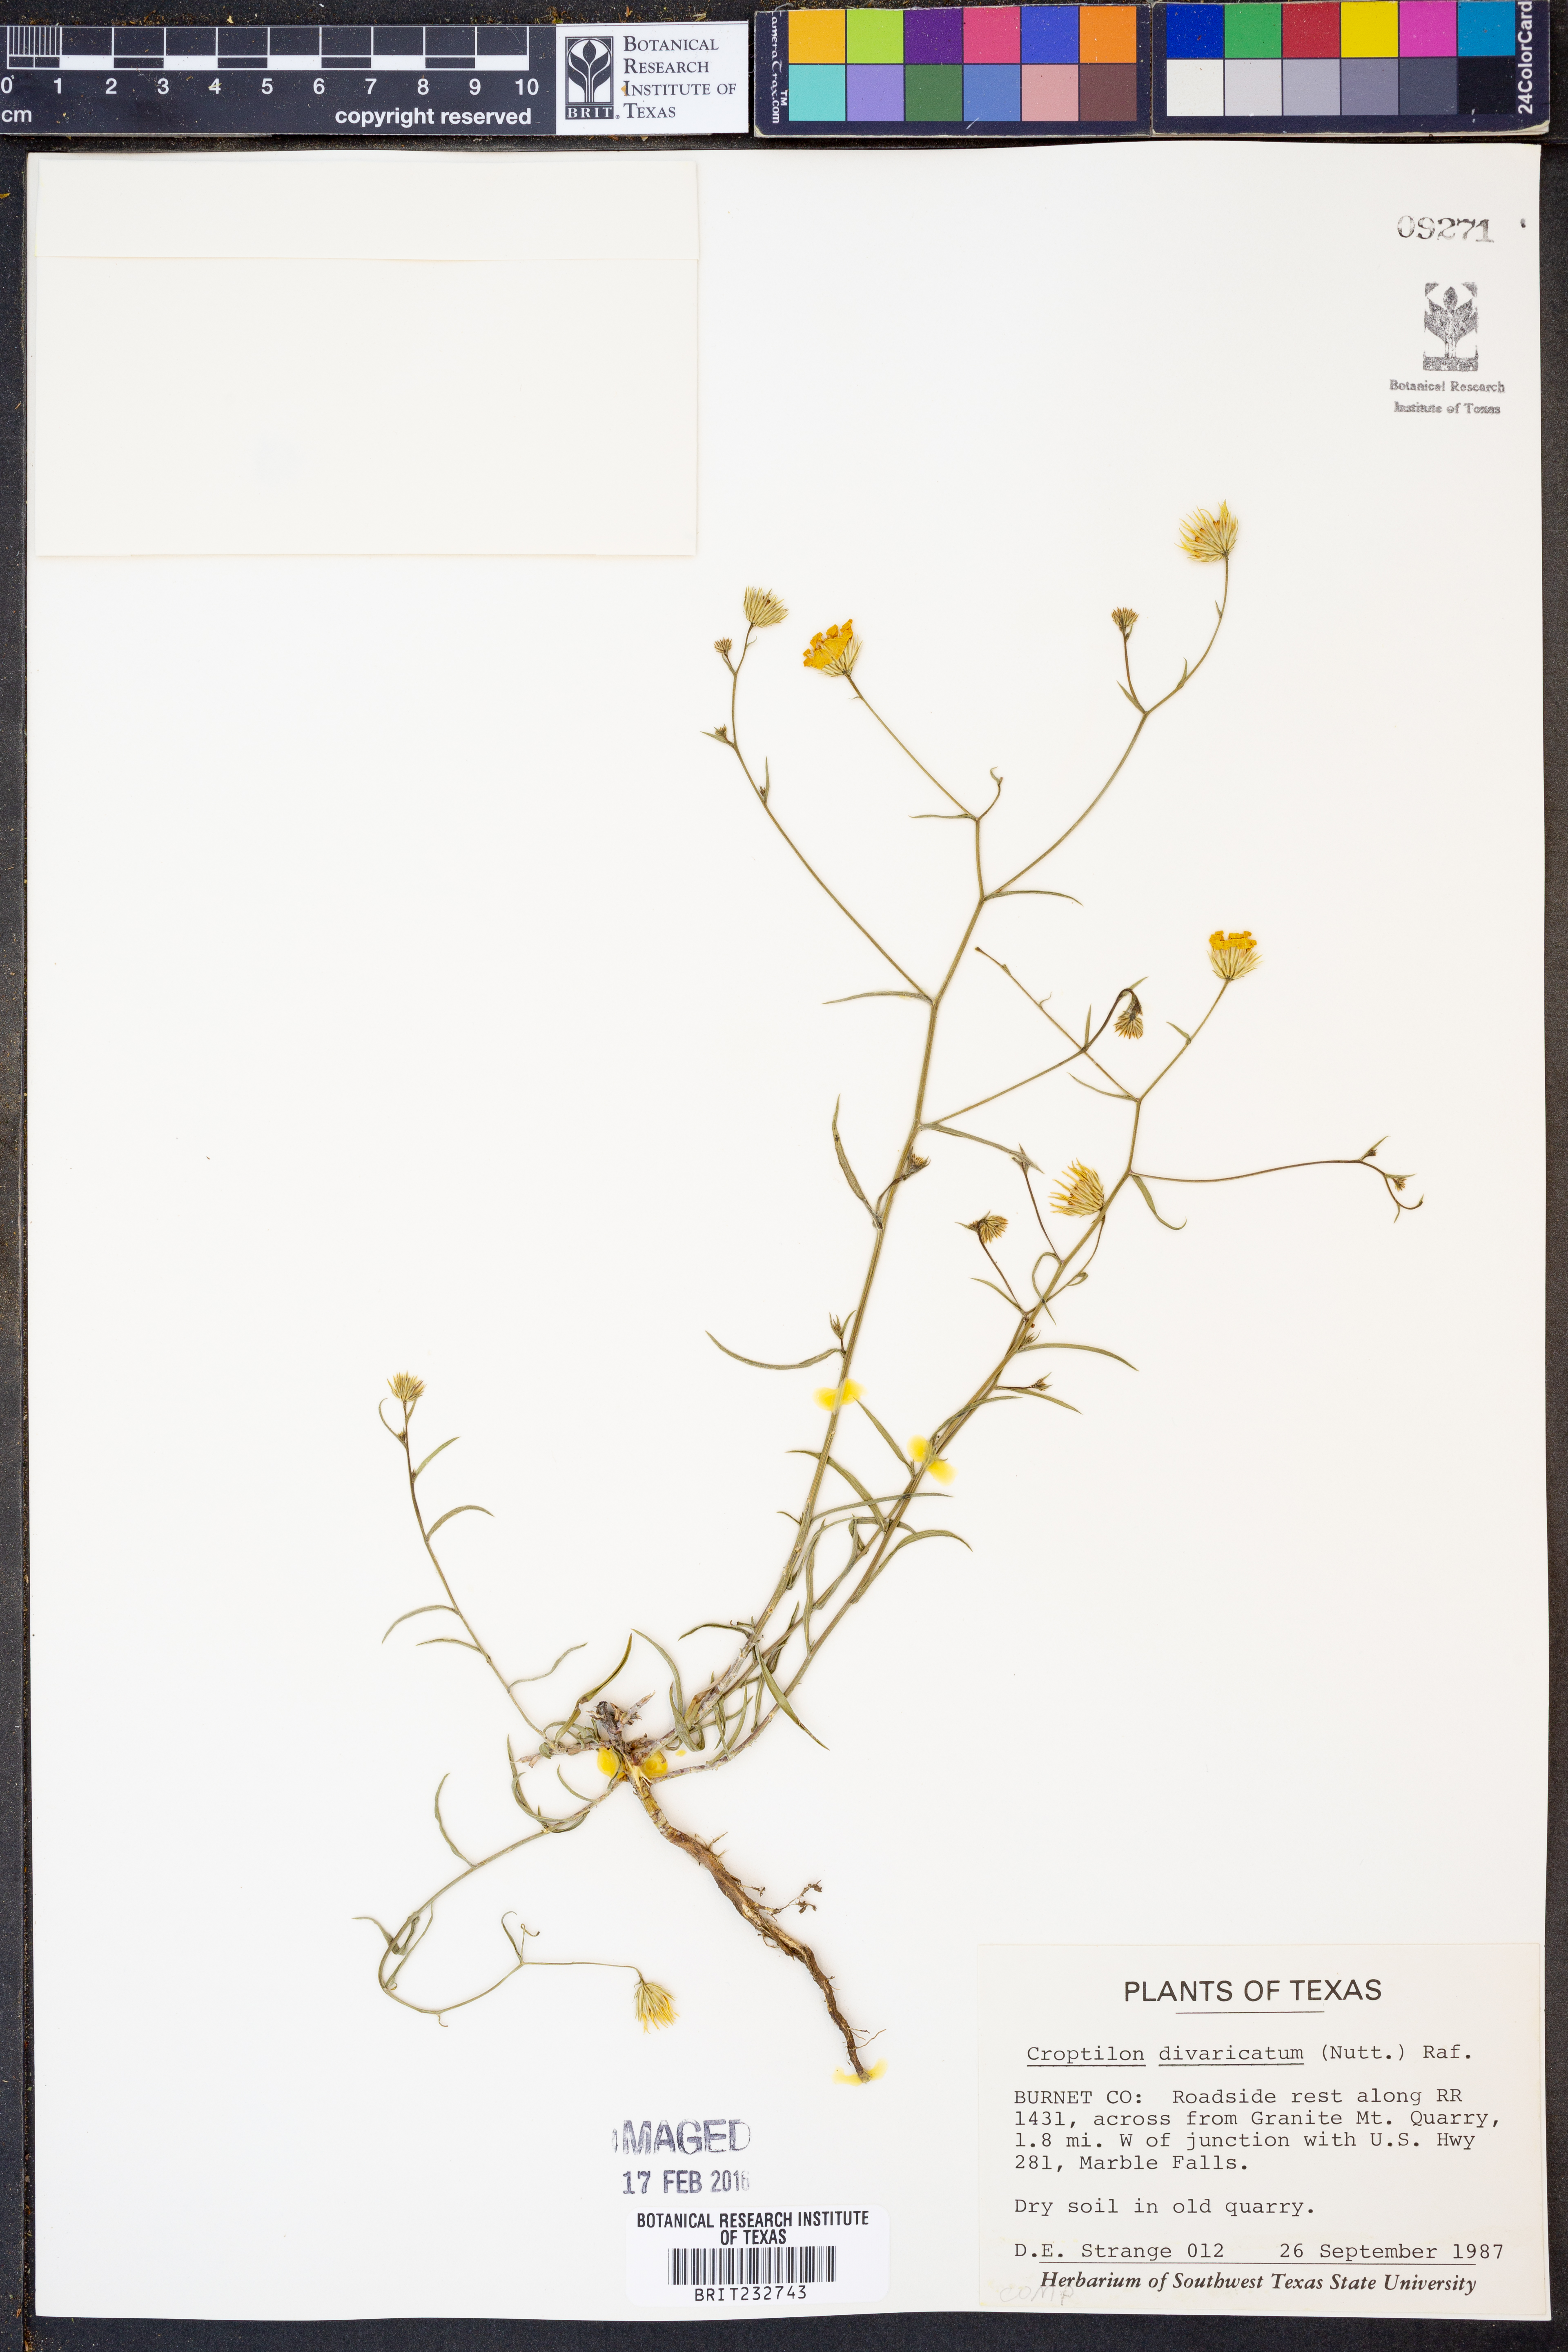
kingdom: Plantae
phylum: Tracheophyta
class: Magnoliopsida
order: Asterales
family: Asteraceae
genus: Croptilon
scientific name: Croptilon divaricatum
